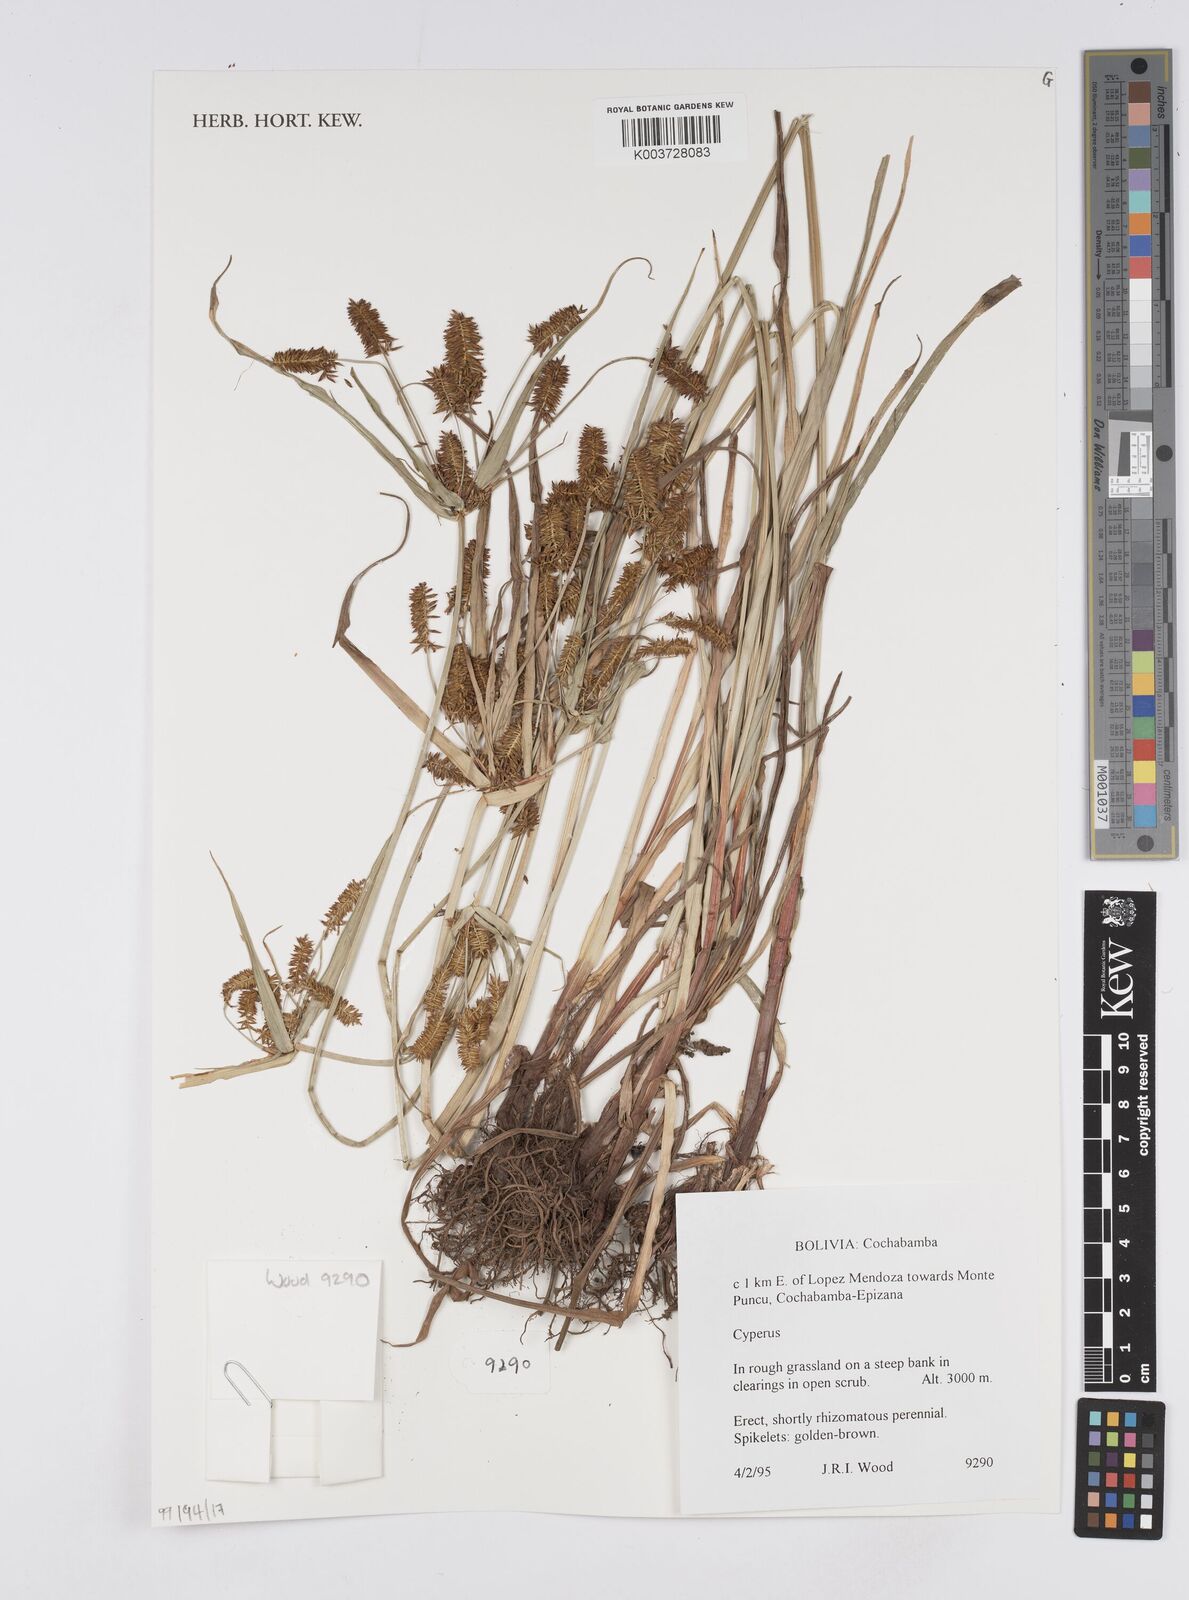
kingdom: Plantae
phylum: Tracheophyta
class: Liliopsida
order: Poales
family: Cyperaceae
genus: Cyperus
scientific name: Cyperus
